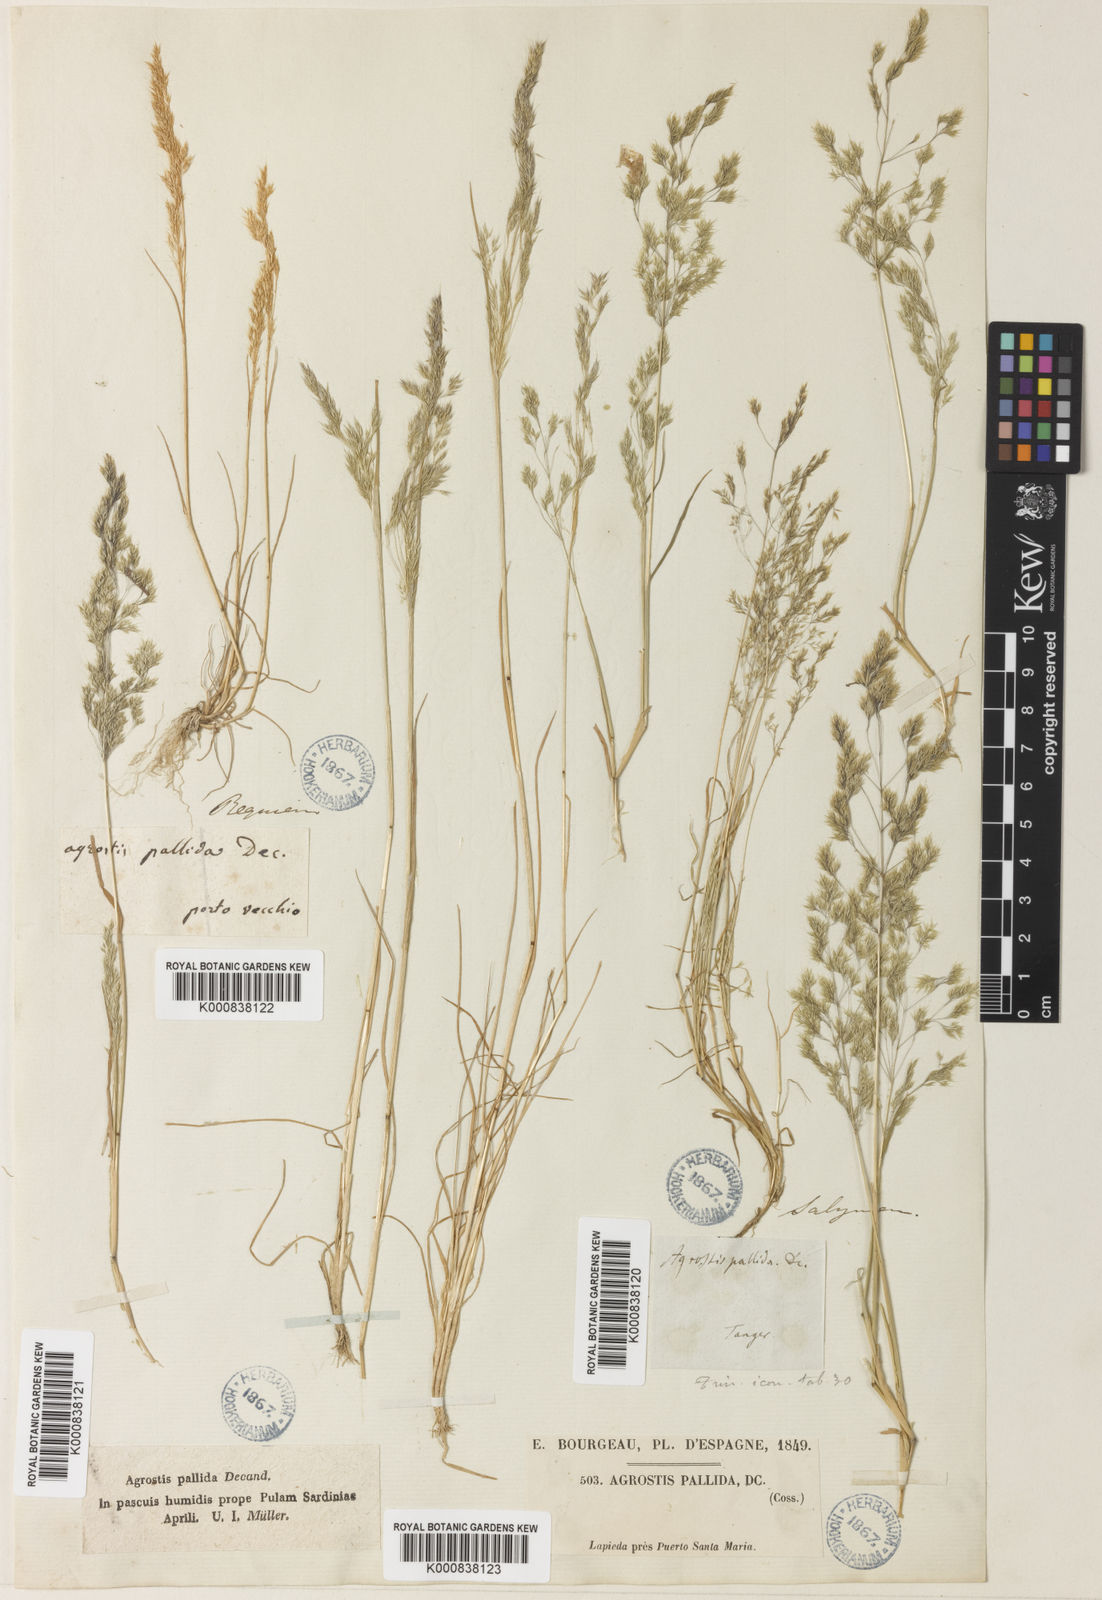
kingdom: Plantae
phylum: Tracheophyta
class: Liliopsida
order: Poales
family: Poaceae
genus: Agrostis
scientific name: Agrostis pourretii
